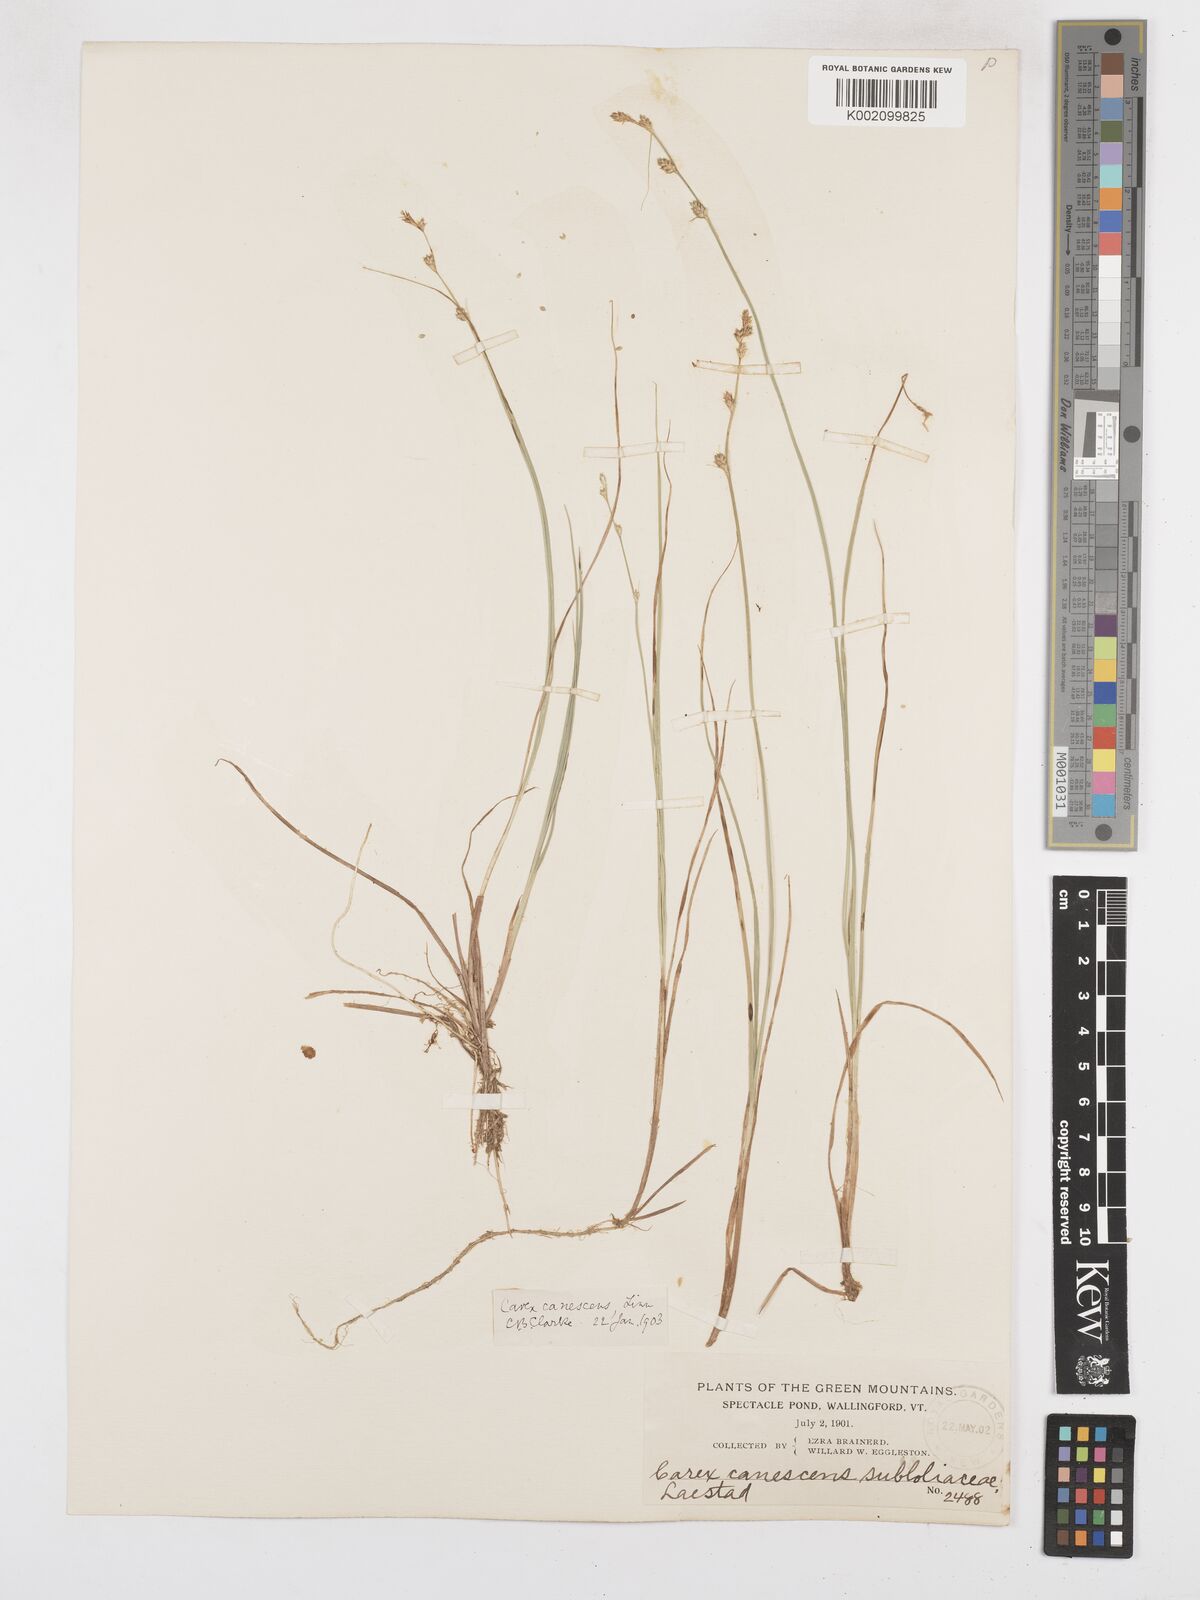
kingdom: Plantae
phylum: Tracheophyta
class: Liliopsida
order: Poales
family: Cyperaceae
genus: Carex
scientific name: Carex curta
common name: White sedge
